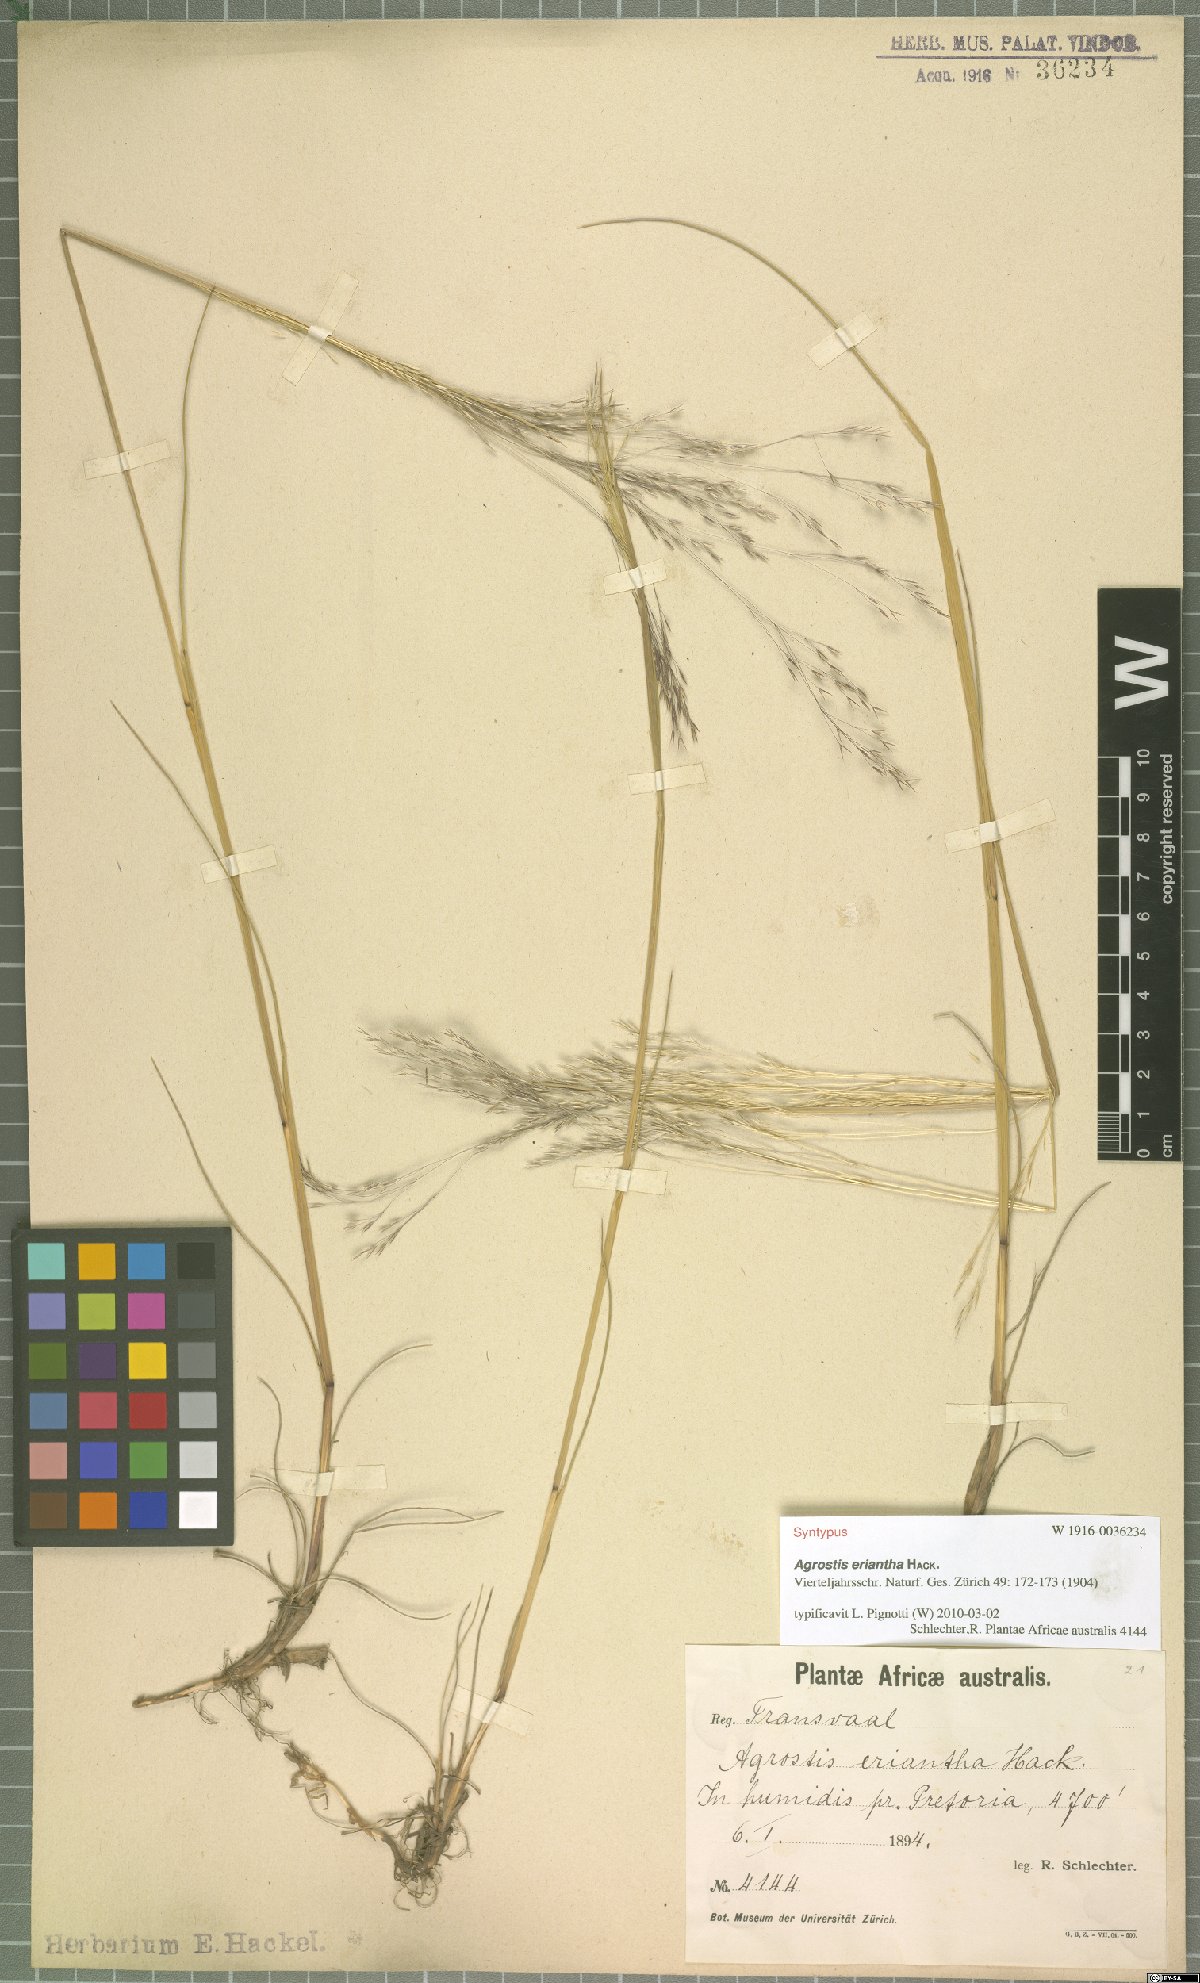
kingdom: Plantae
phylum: Tracheophyta
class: Liliopsida
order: Poales
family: Poaceae
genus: Lachnagrostis
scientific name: Lachnagrostis eriantha
